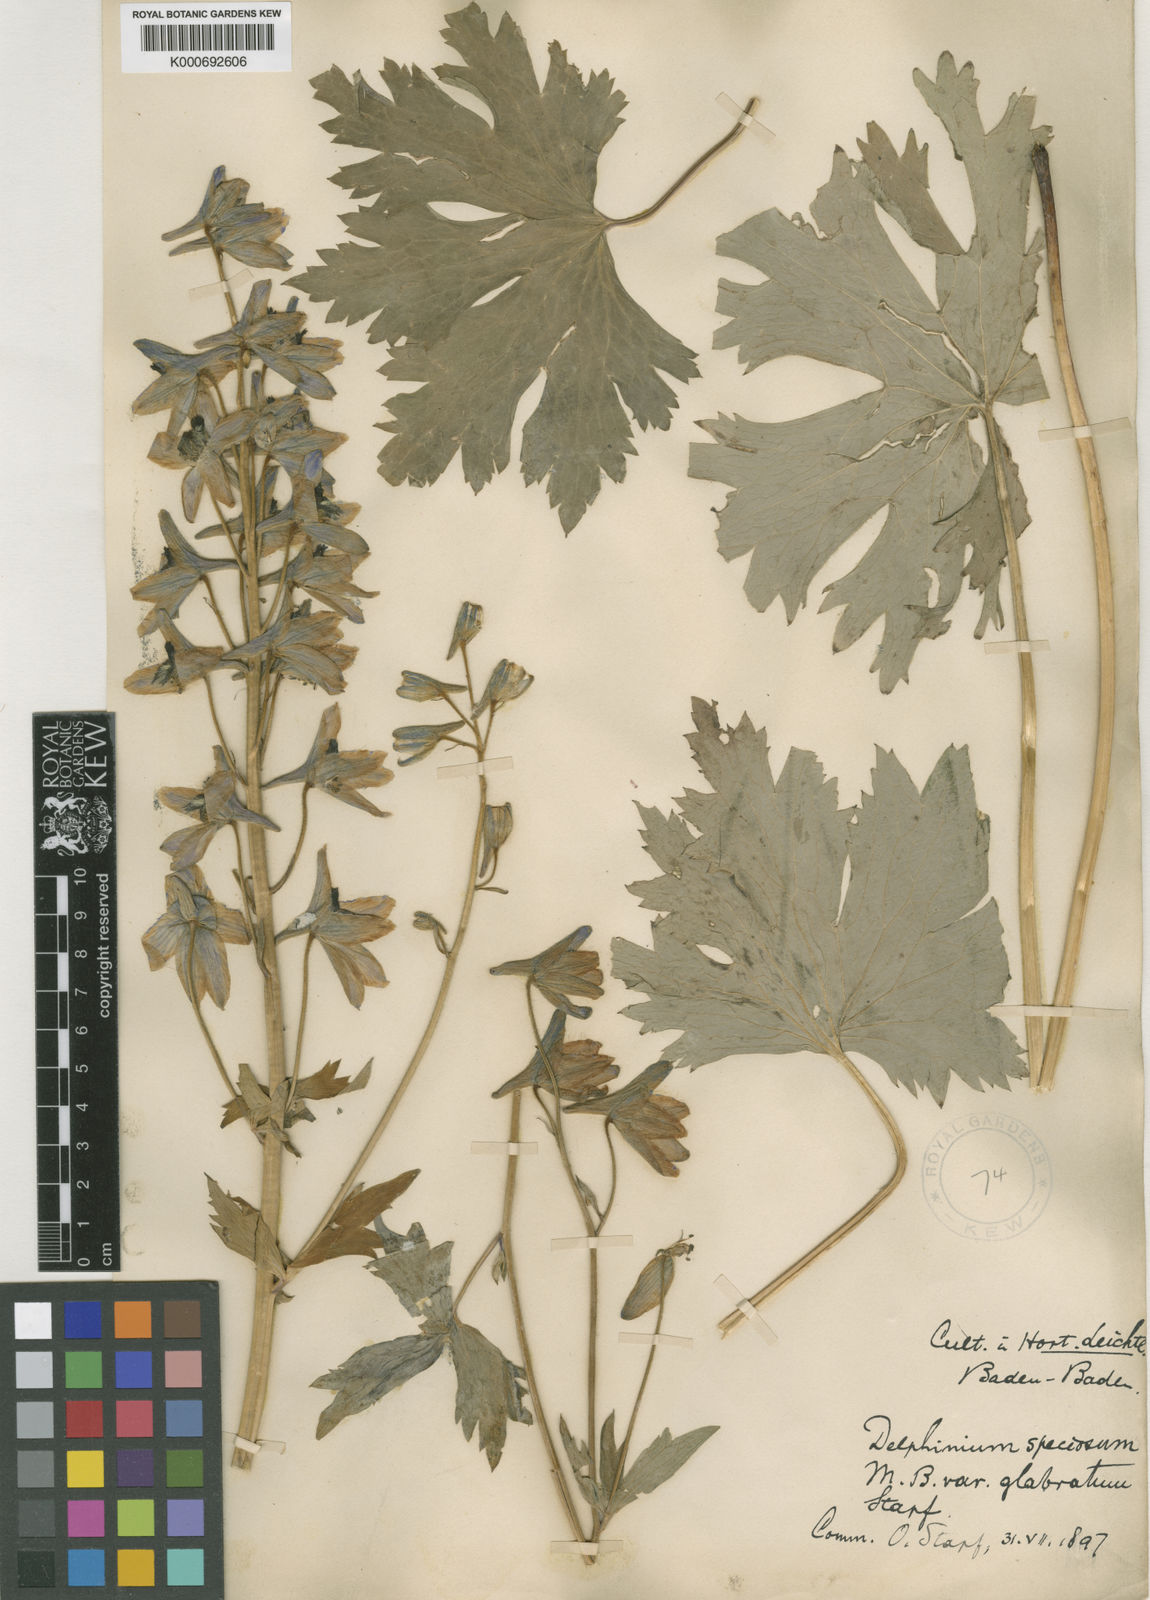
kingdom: Plantae
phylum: Tracheophyta
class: Magnoliopsida
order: Ranunculales
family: Ranunculaceae
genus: Delphinium
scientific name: Delphinium
